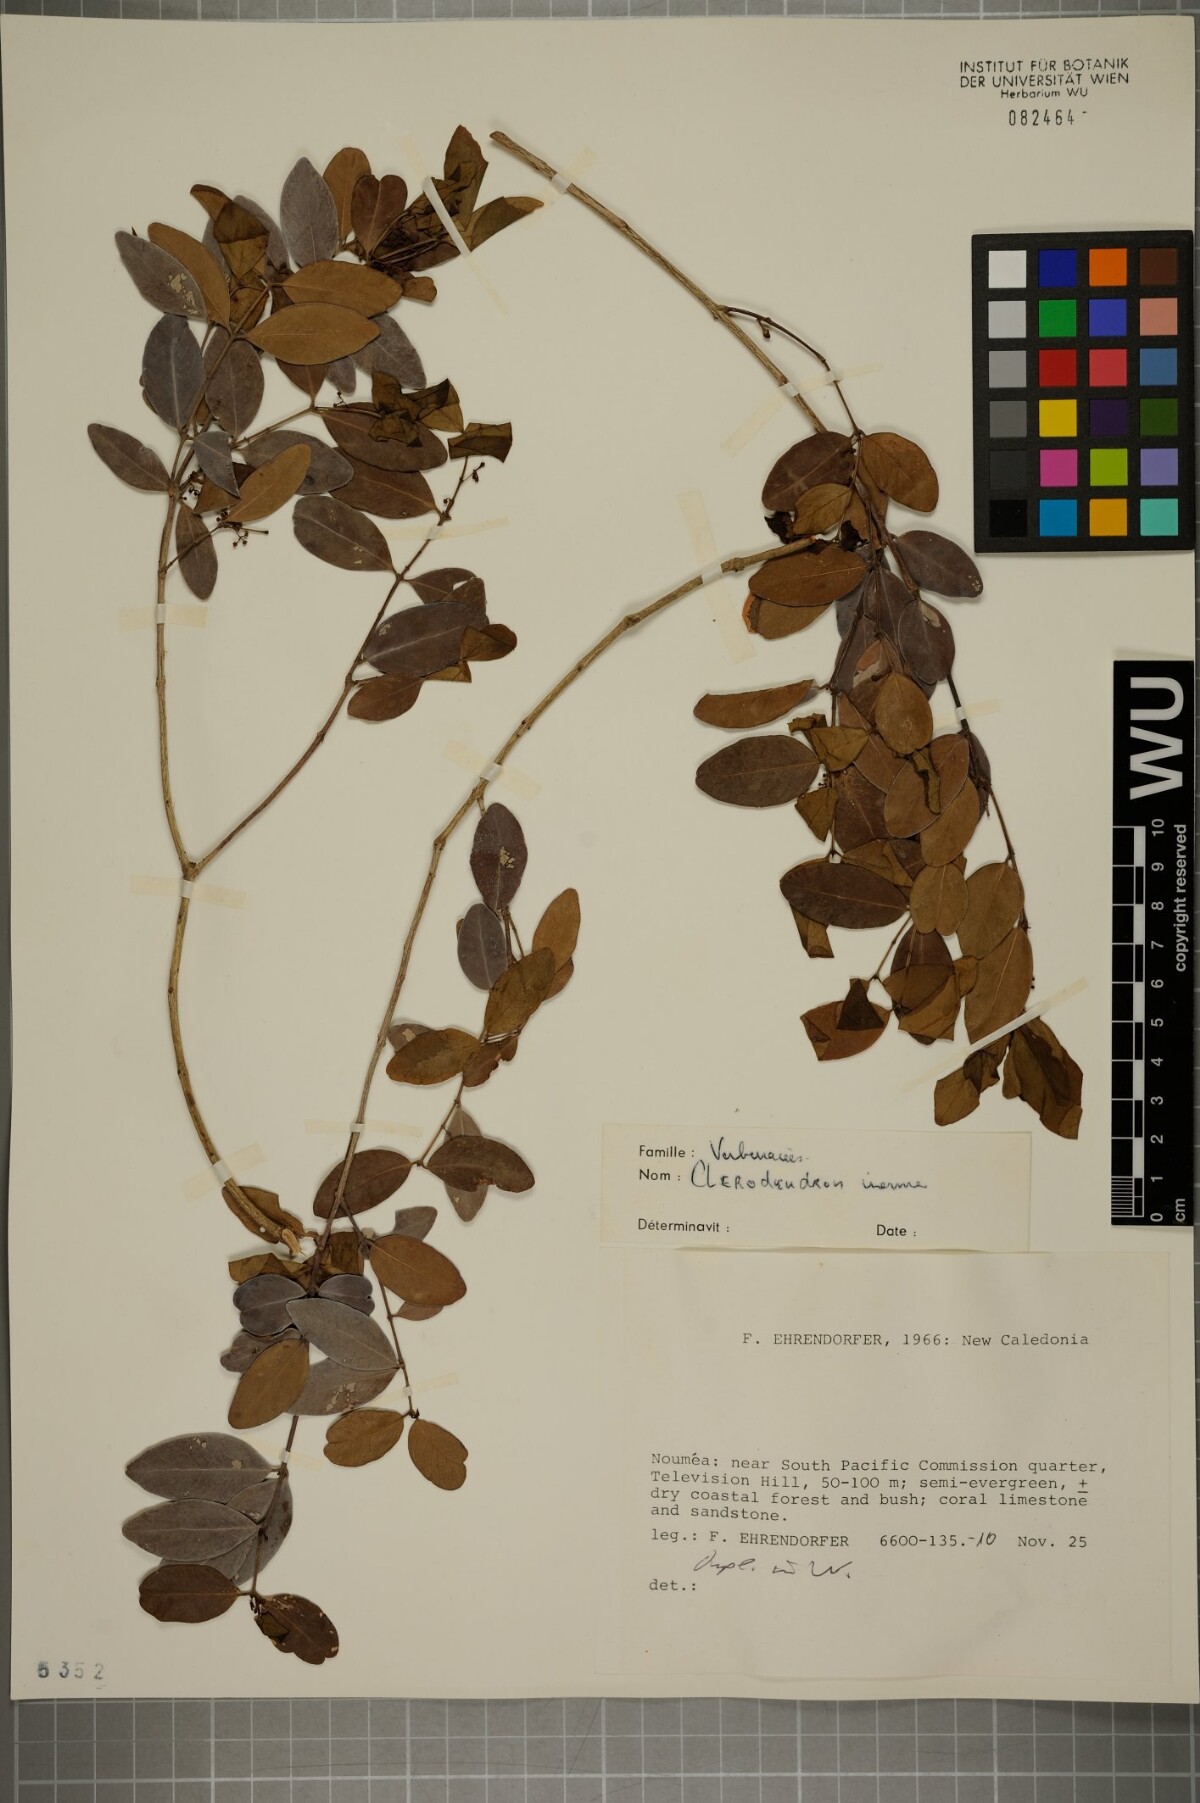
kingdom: Plantae
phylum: Tracheophyta
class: Magnoliopsida
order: Lamiales
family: Lamiaceae
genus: Volkameria
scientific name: Volkameria inermis
